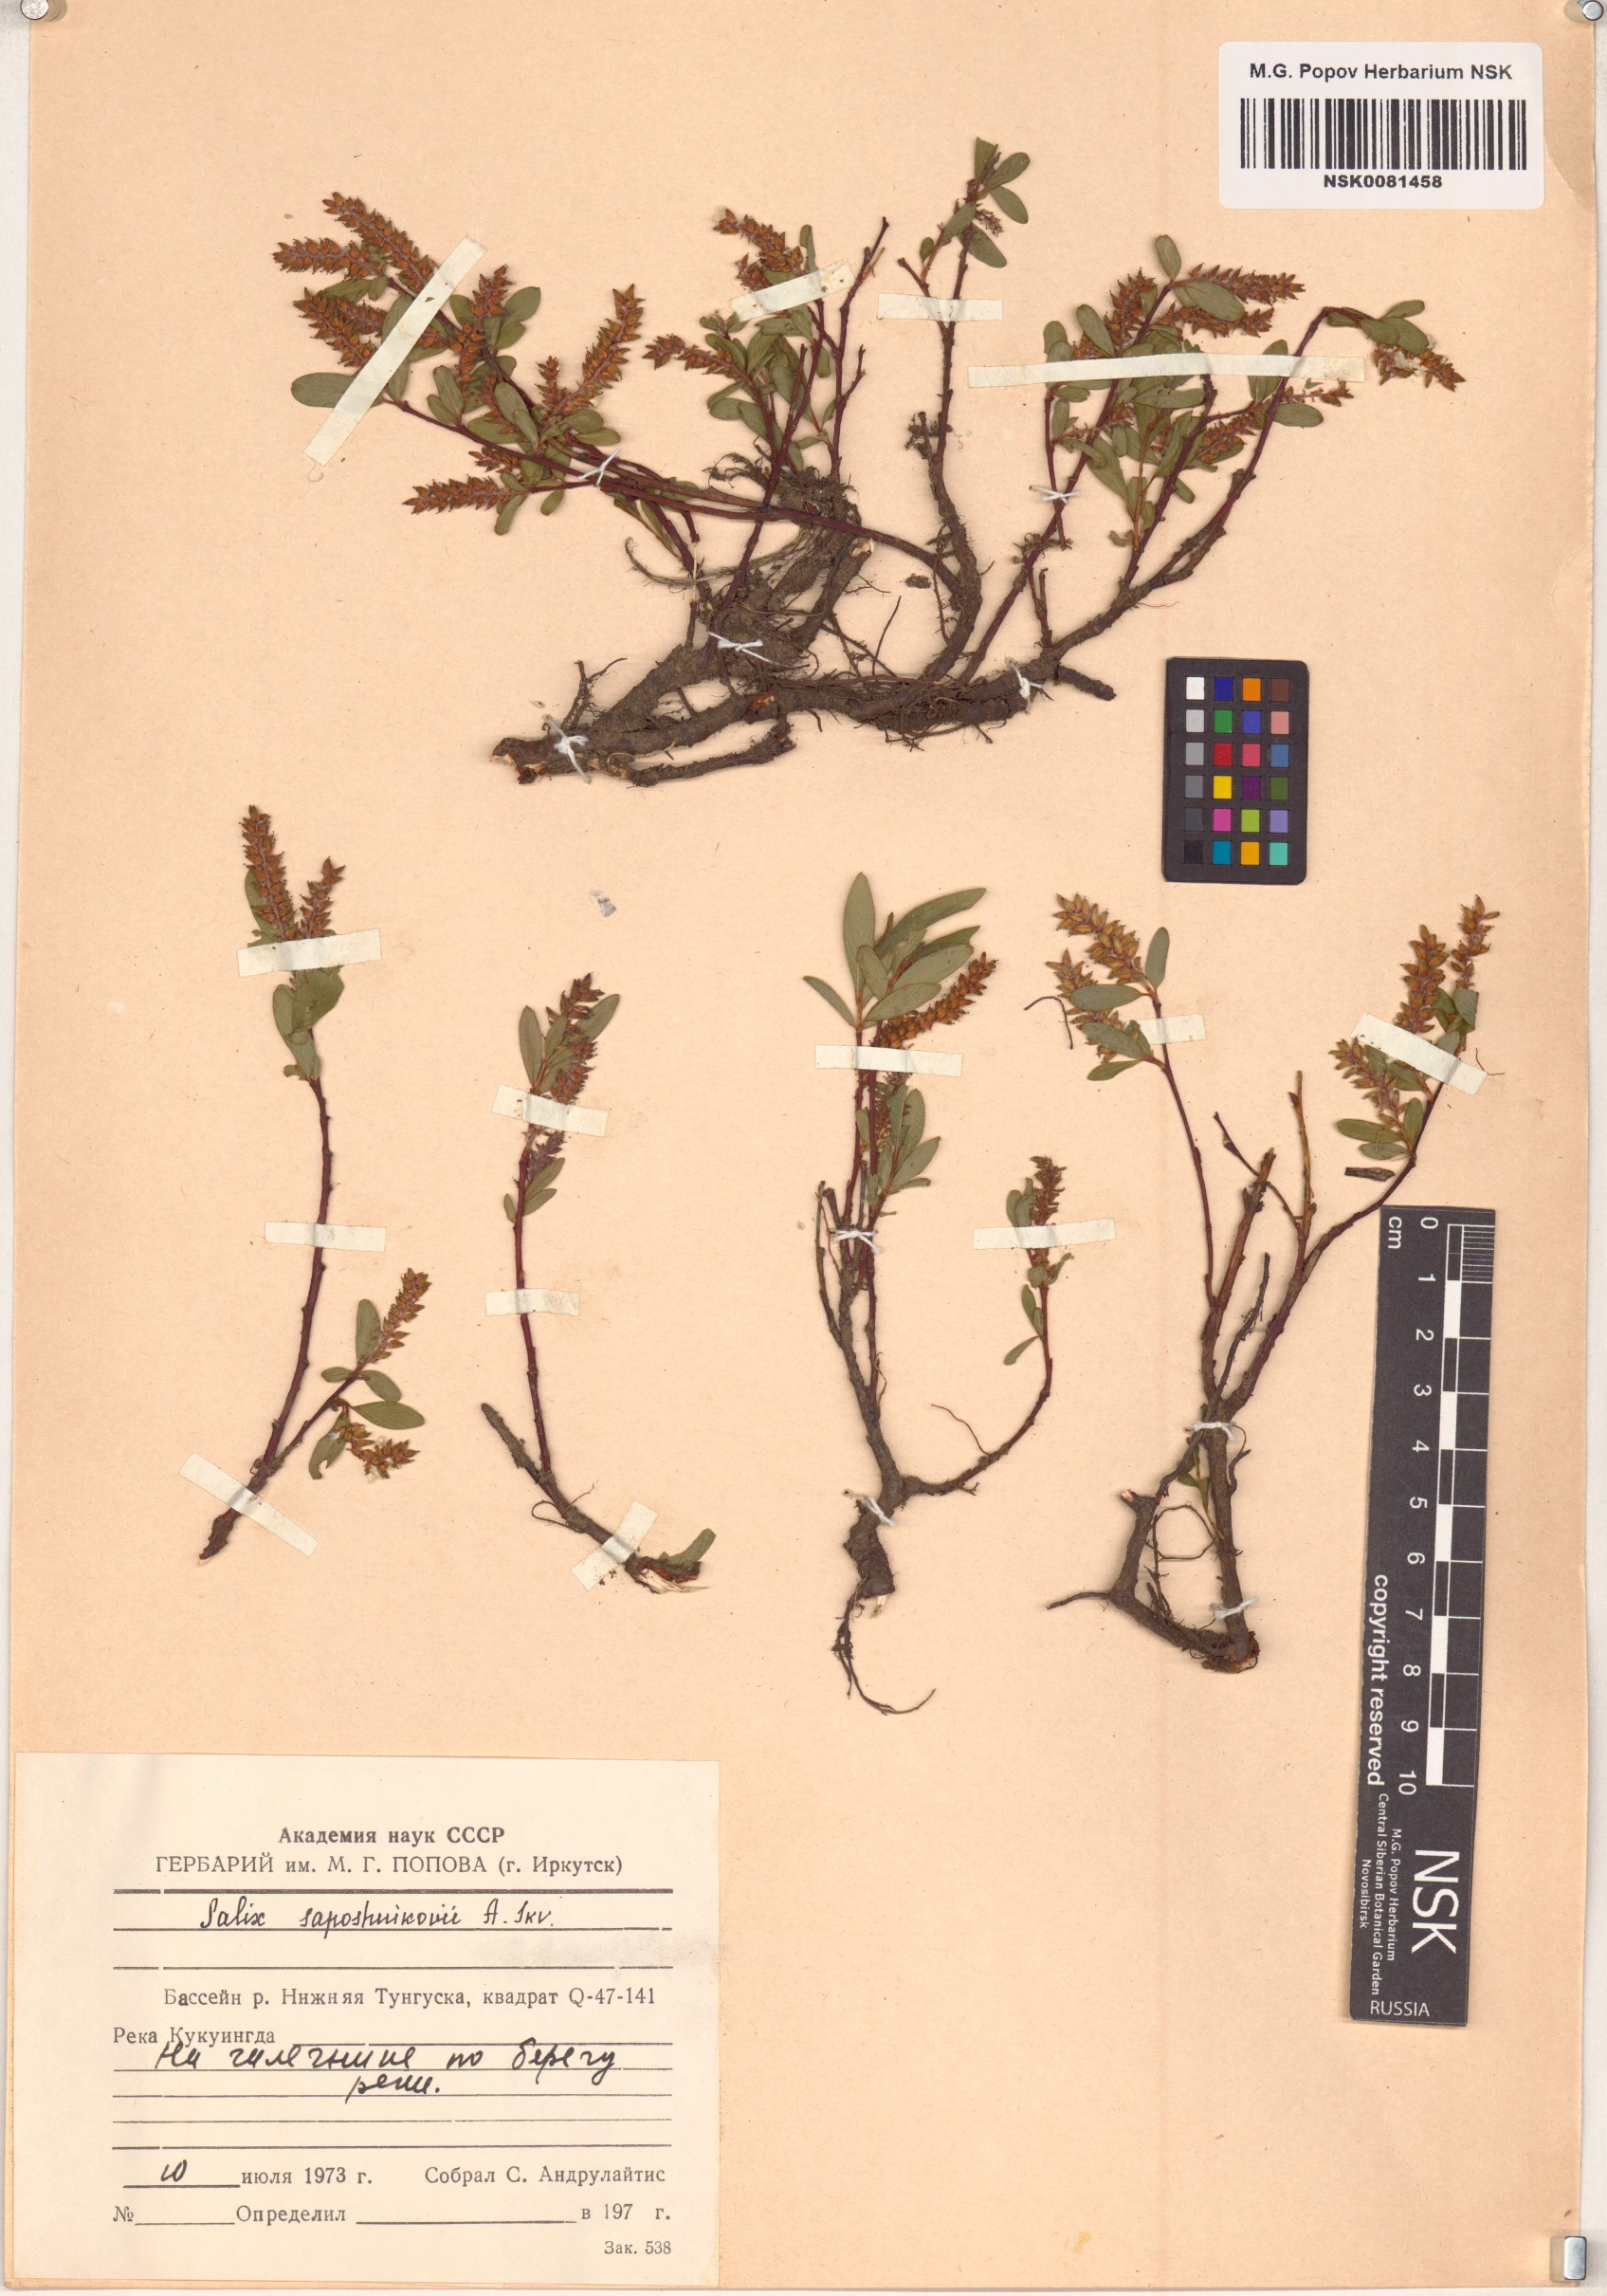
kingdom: Plantae
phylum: Tracheophyta
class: Magnoliopsida
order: Malpighiales
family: Salicaceae
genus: Salix
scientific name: Salix saposhnikovii
